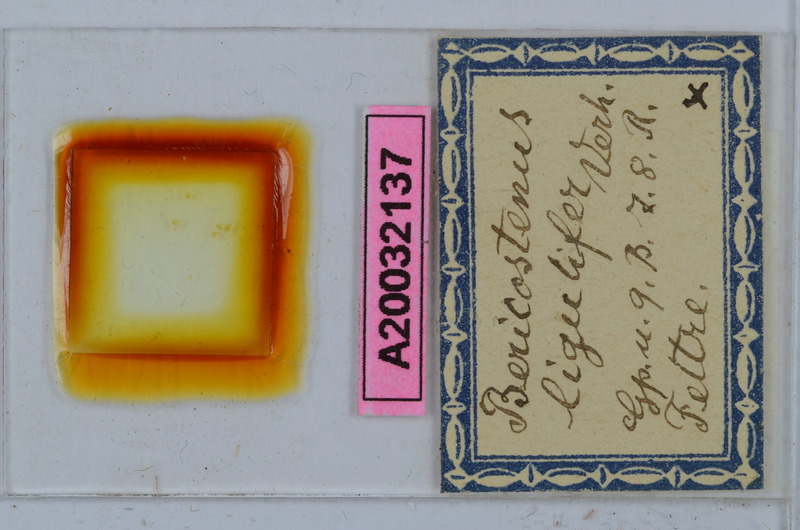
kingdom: Animalia
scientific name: Animalia
